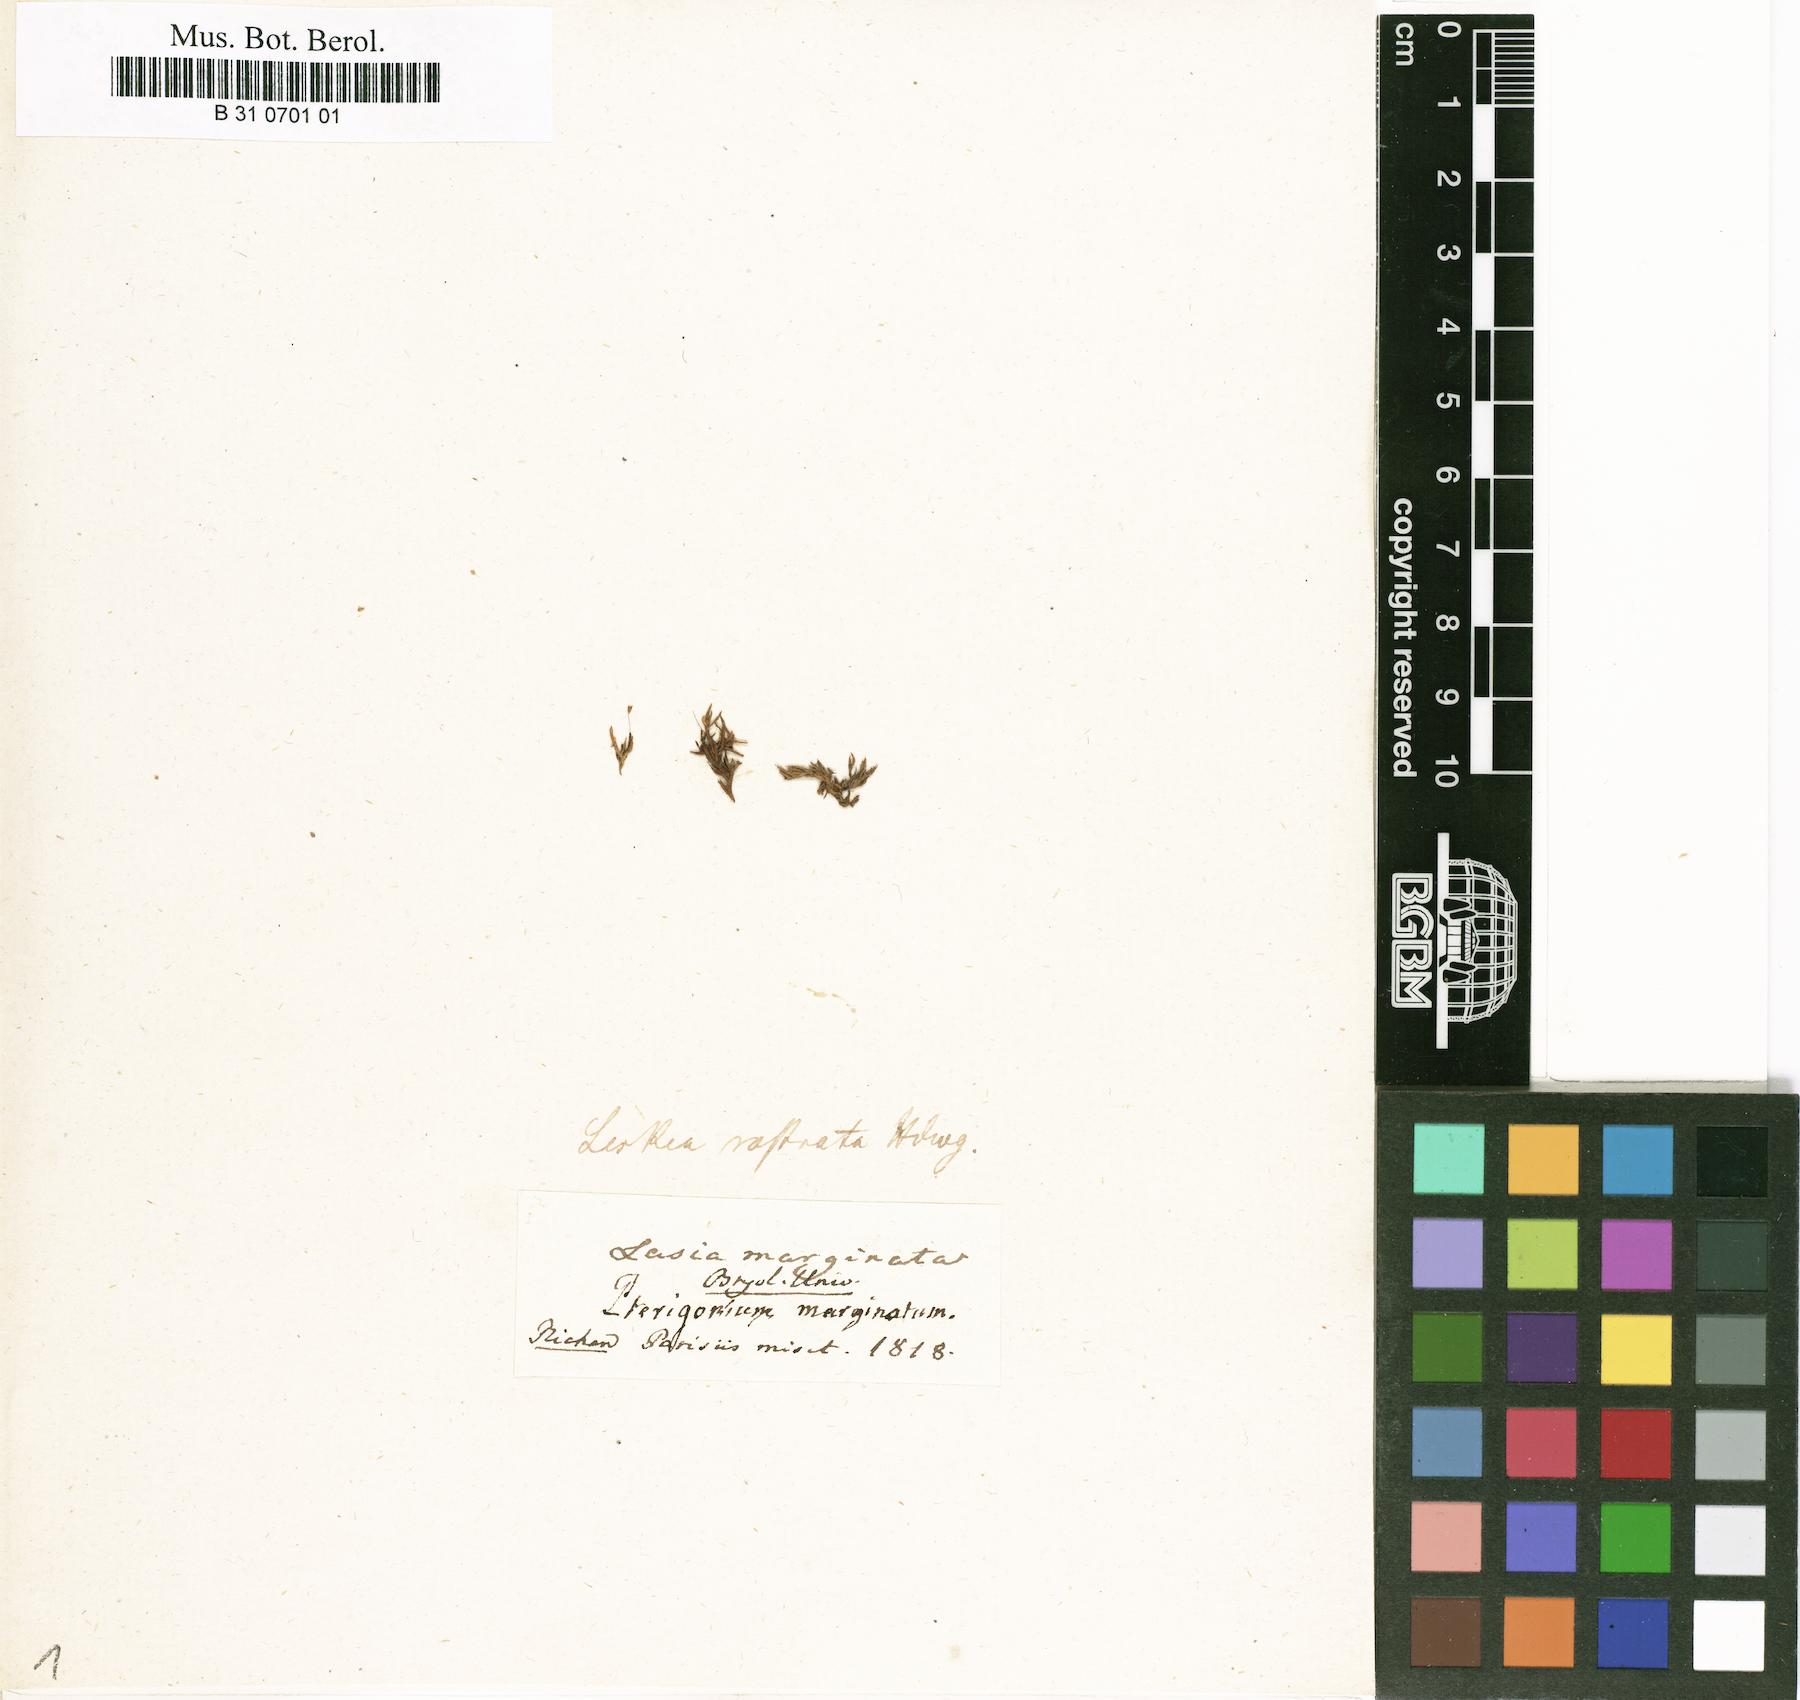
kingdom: Plantae
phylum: Bryophyta
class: Bryopsida
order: Hypnales
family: Brachytheciaceae
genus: Claopodium
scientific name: Claopodium rostratum
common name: Yellow yarn moss
